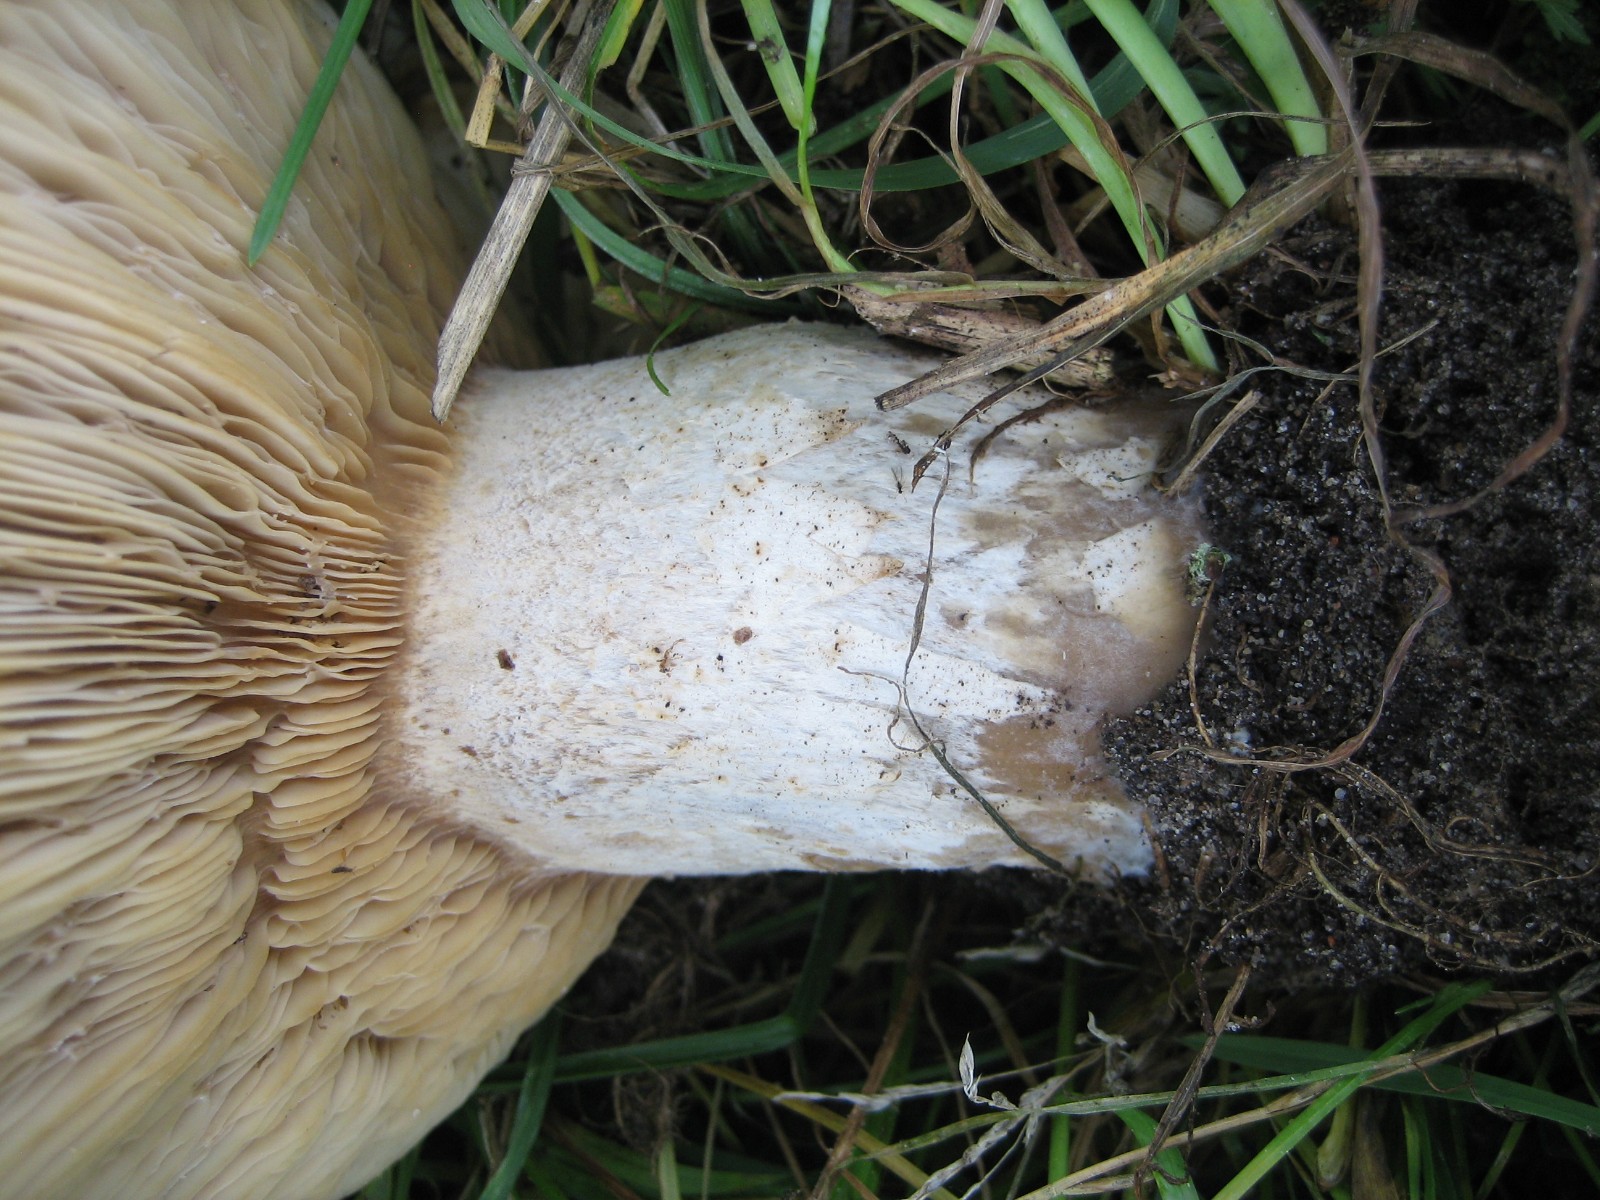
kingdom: Fungi
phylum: Basidiomycota
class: Agaricomycetes
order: Agaricales
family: Tricholomataceae
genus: Aspropaxillus
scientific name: Aspropaxillus giganteus
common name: kæmpe-tragtridderhat
